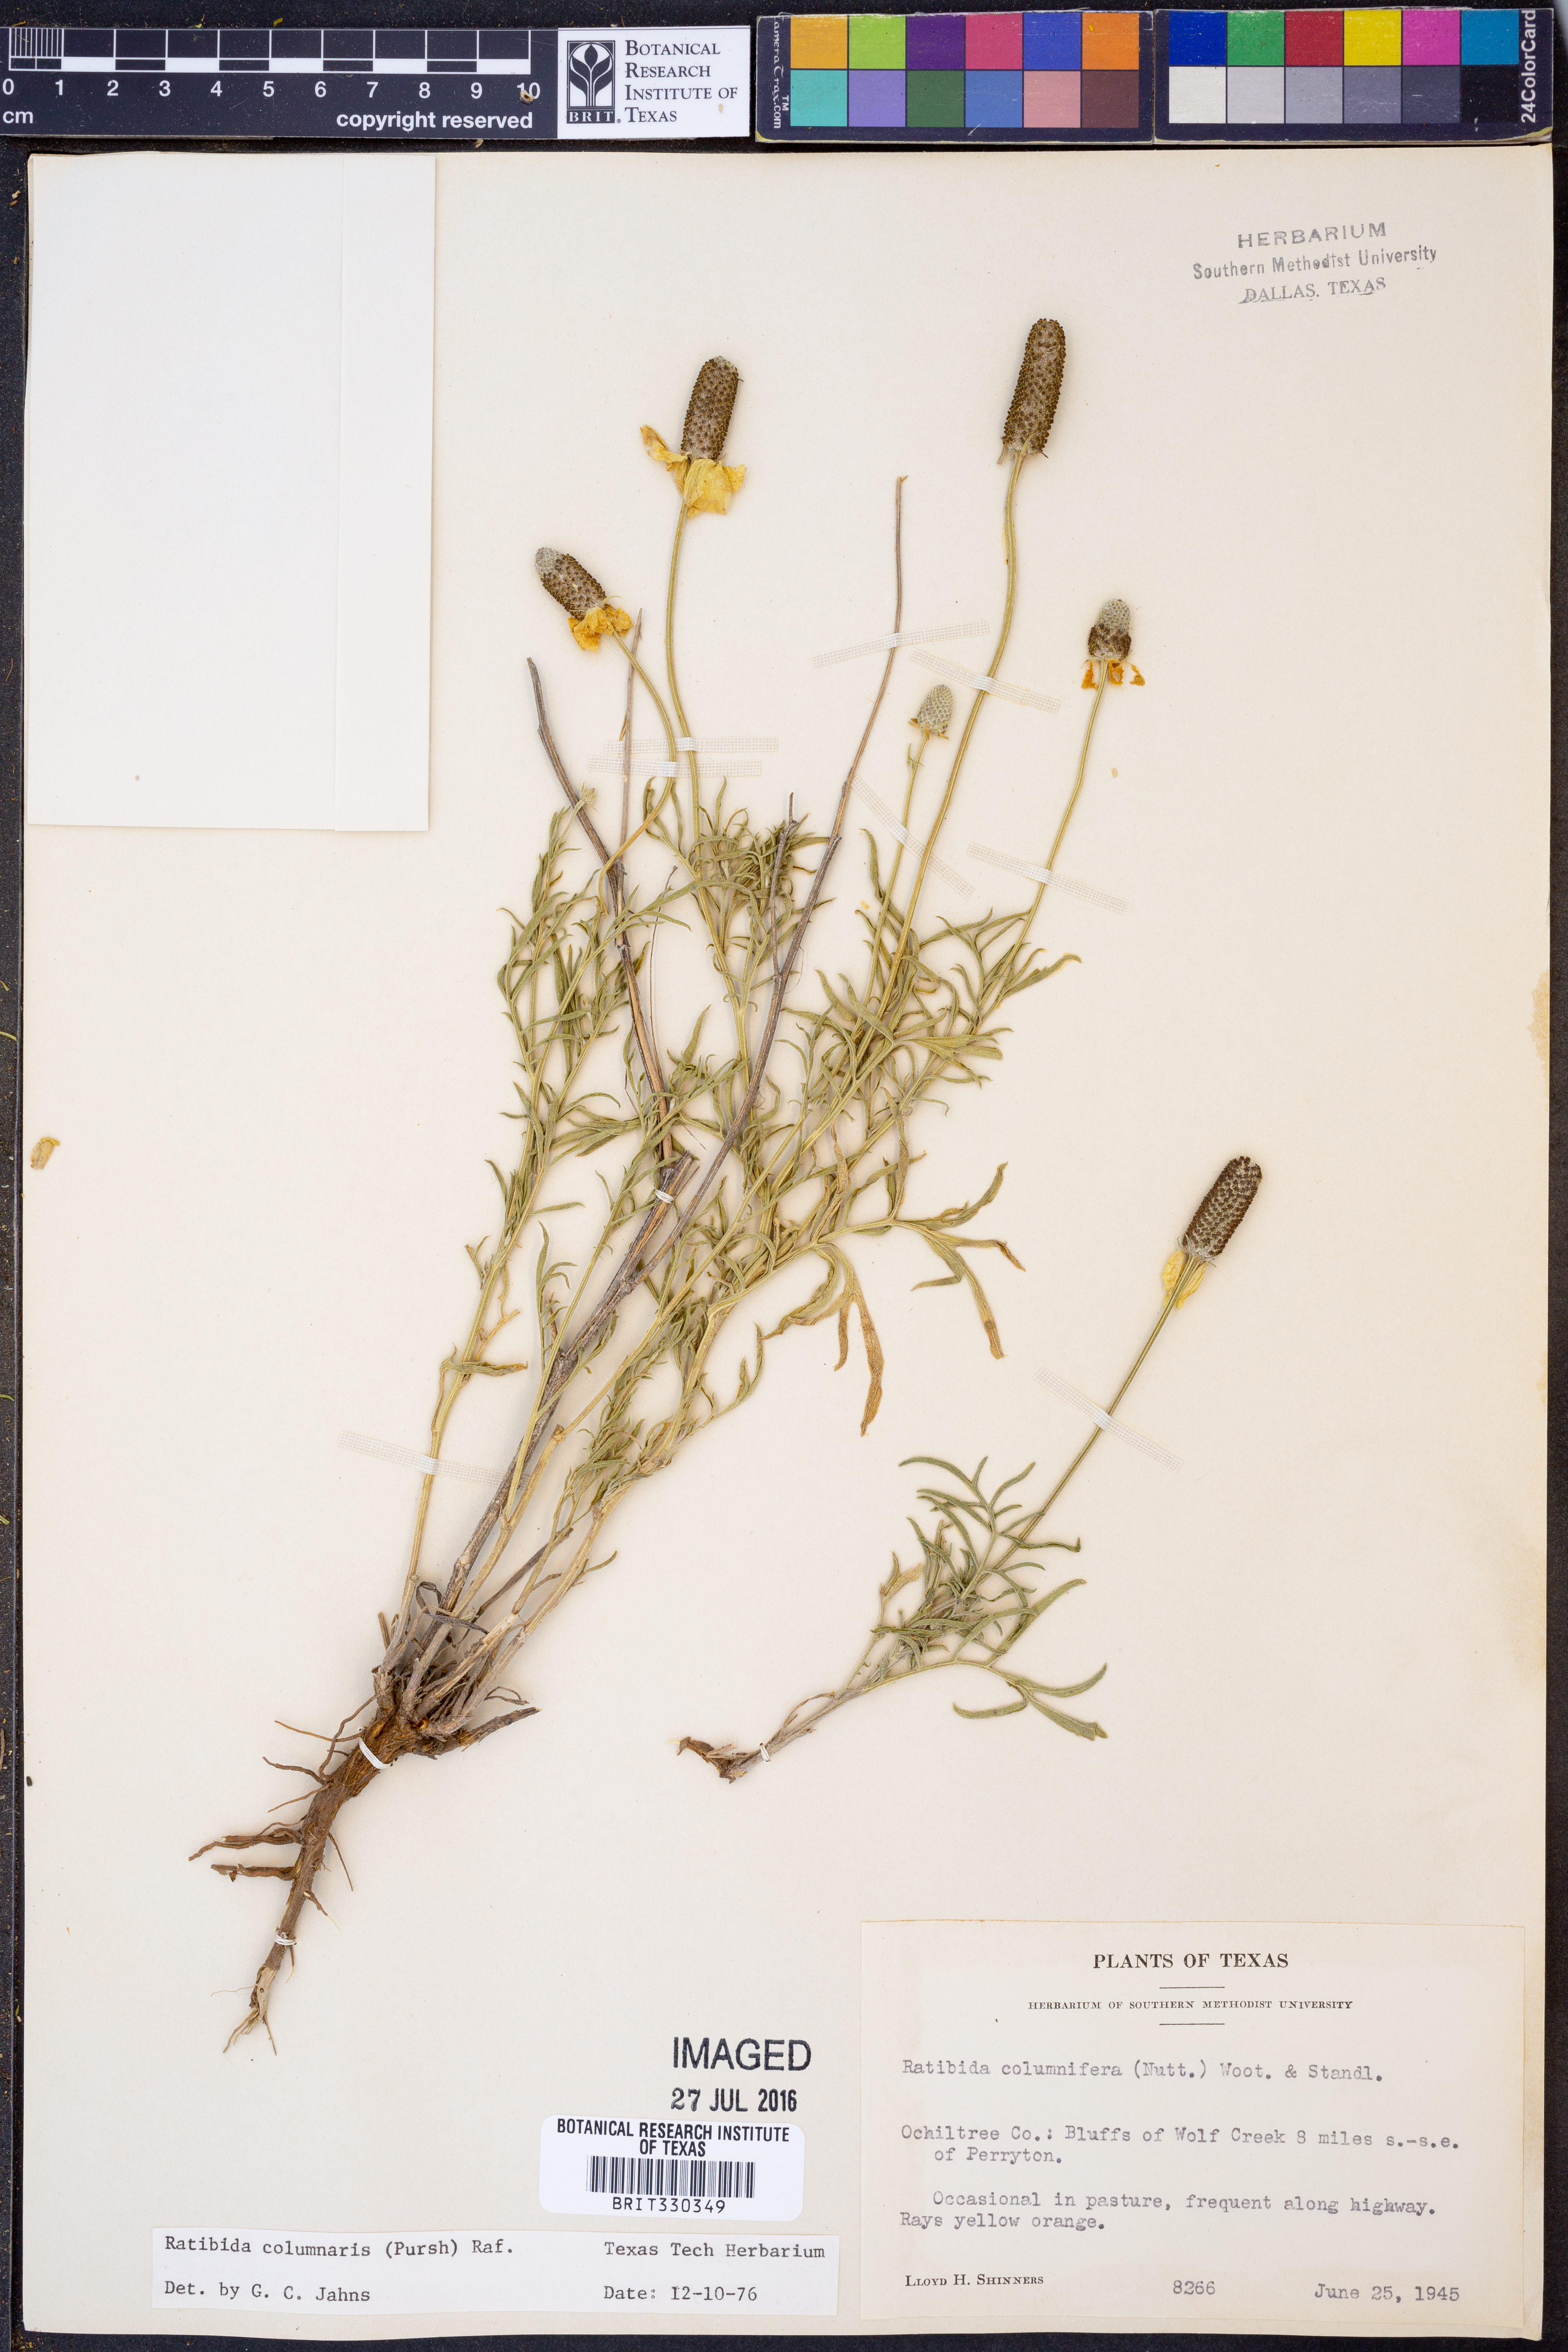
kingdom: Plantae
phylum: Tracheophyta
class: Magnoliopsida
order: Asterales
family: Asteraceae
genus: Ratibida
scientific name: Ratibida columnifera
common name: Prairie coneflower
